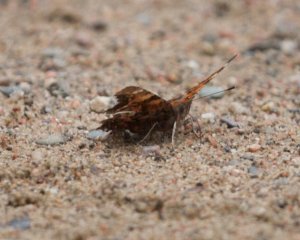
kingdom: Animalia
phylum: Arthropoda
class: Insecta
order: Lepidoptera
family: Nymphalidae
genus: Polygonia
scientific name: Polygonia faunus
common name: Green Comma
